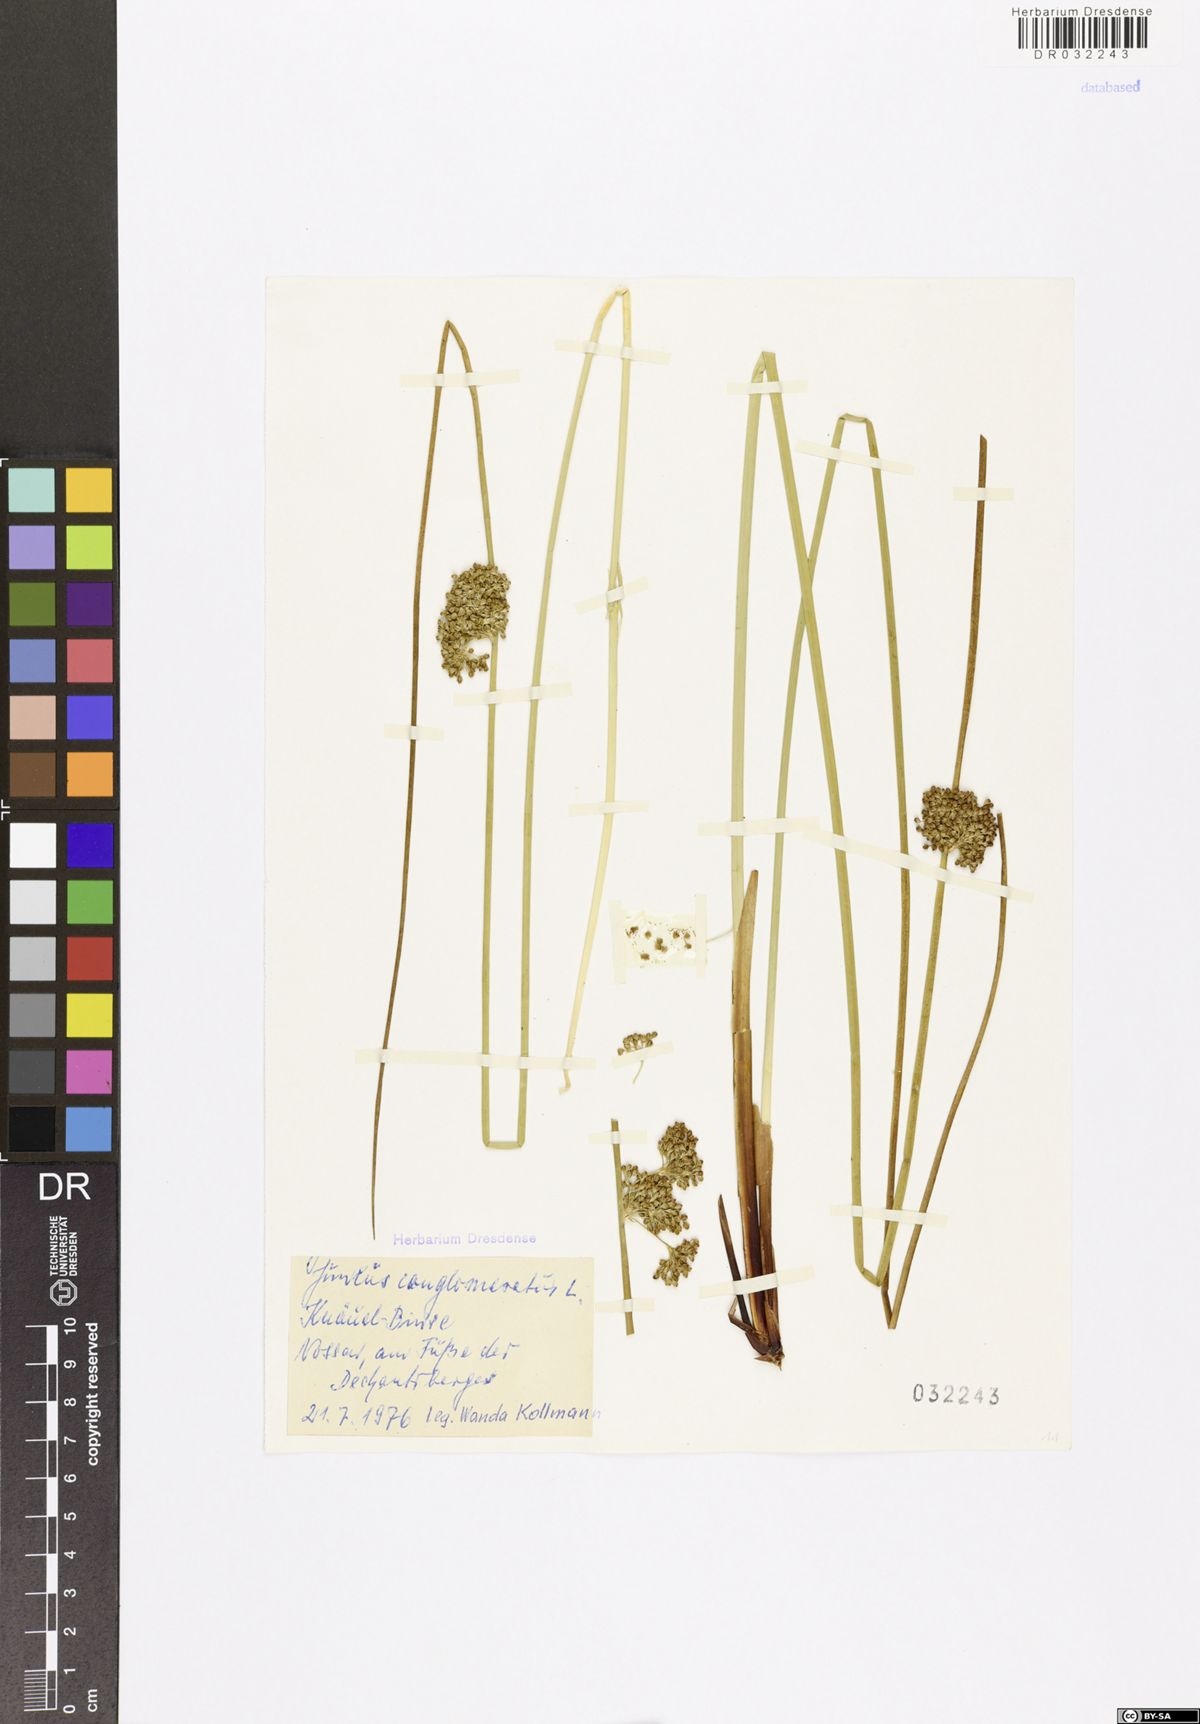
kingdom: Plantae
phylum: Tracheophyta
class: Liliopsida
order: Poales
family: Juncaceae
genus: Juncus
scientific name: Juncus conglomeratus
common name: Compact rush
